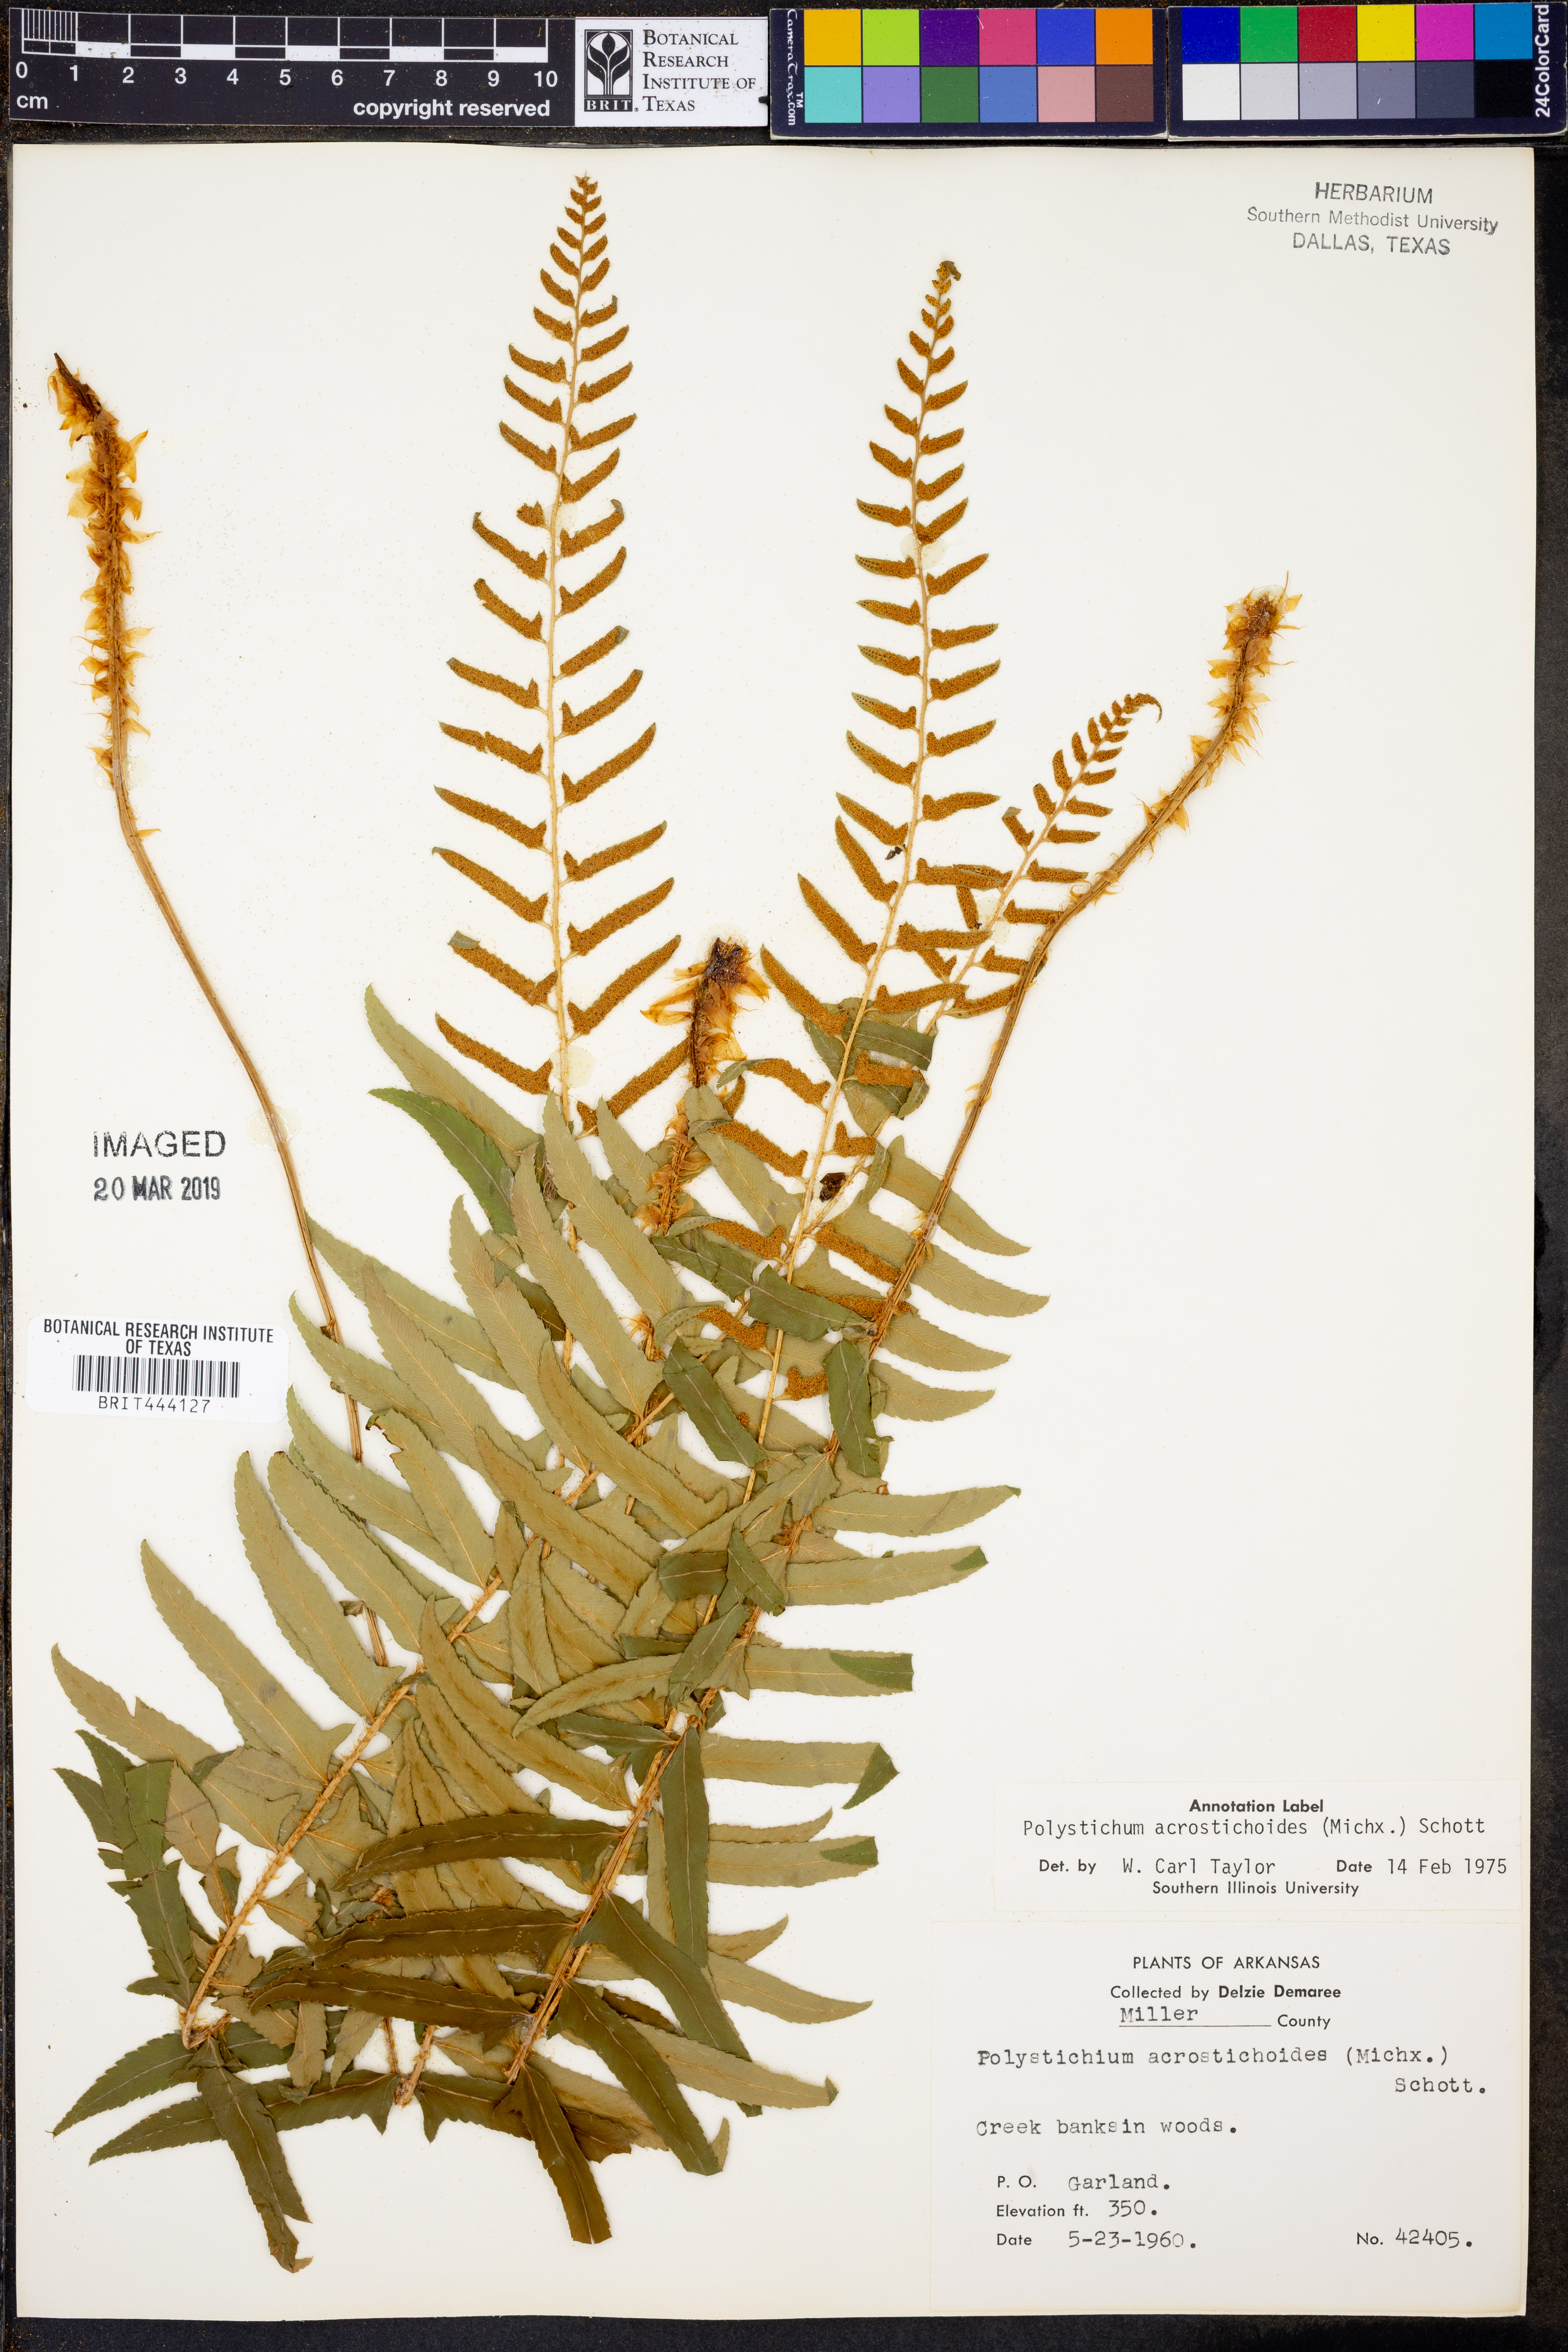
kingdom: Plantae
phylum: Tracheophyta
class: Polypodiopsida
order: Polypodiales
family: Dryopteridaceae
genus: Polystichum
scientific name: Polystichum acrostichoides
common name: Christmas fern
